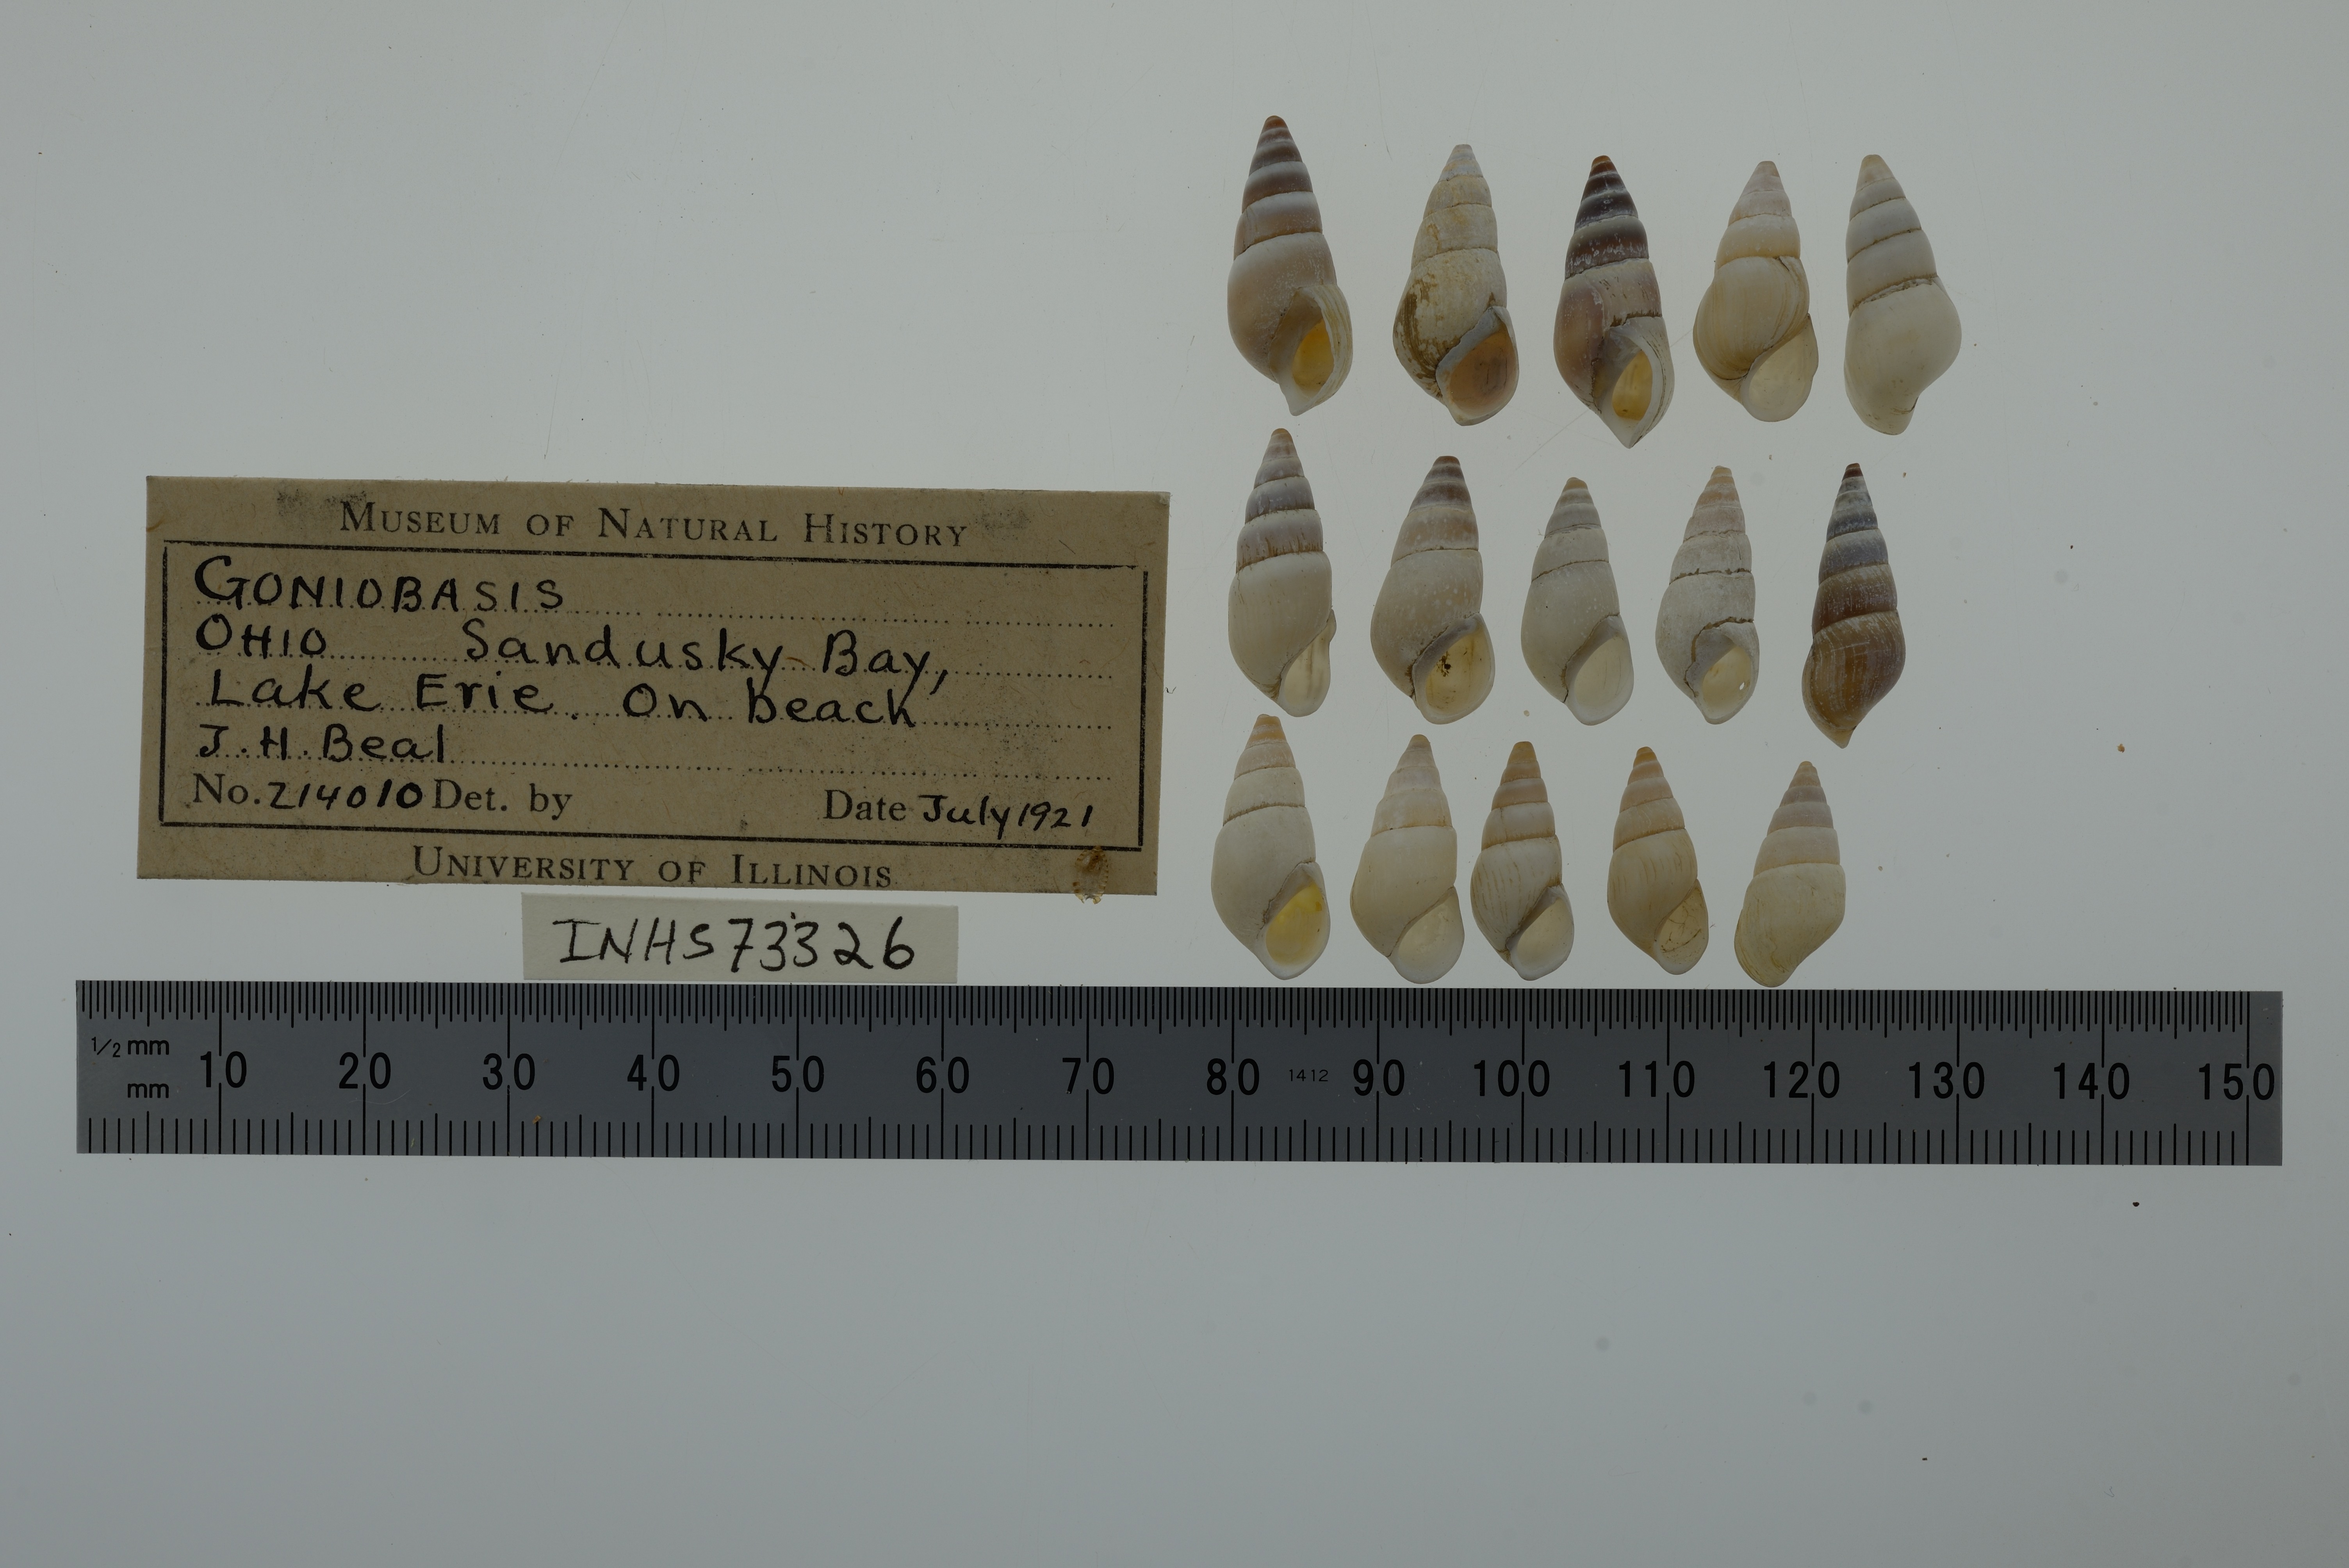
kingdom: Animalia
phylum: Mollusca
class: Gastropoda
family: Pleuroceridae
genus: Elimia
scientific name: Elimia
